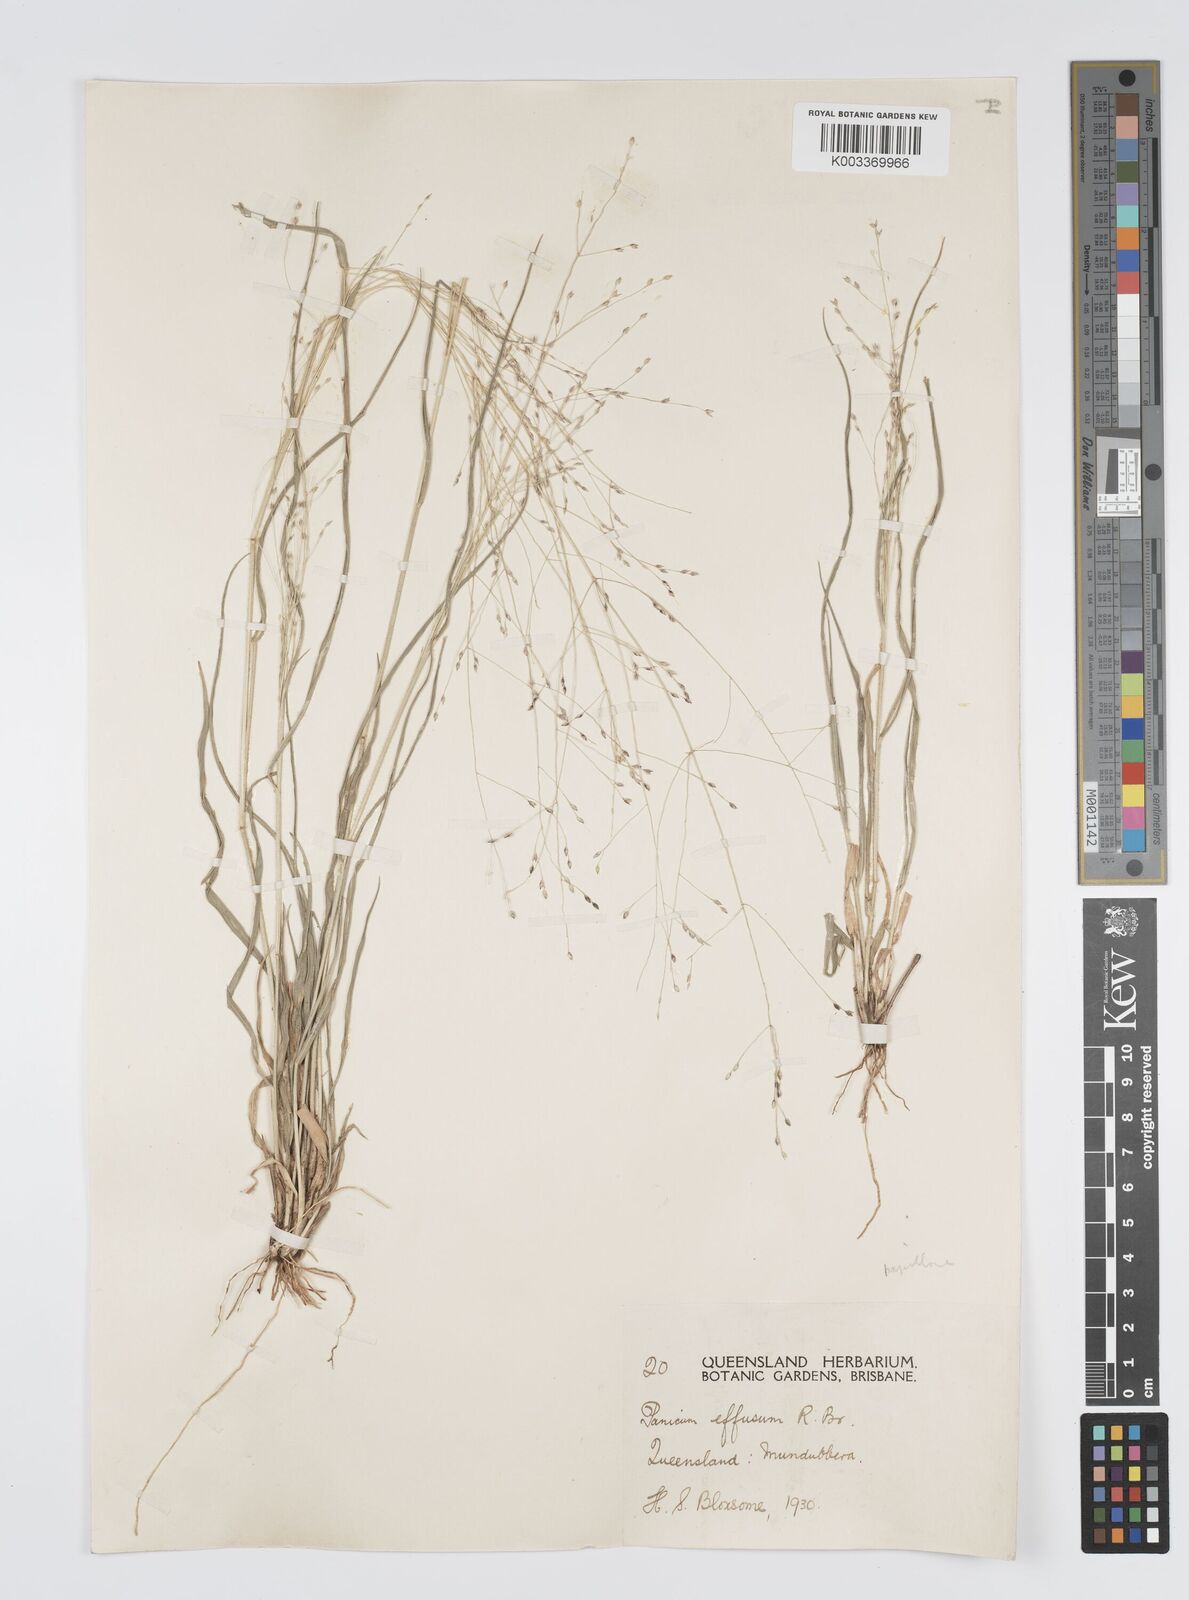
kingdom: Plantae
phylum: Tracheophyta
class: Liliopsida
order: Poales
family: Poaceae
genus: Panicum
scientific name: Panicum effusum
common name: Hairy panic grass
